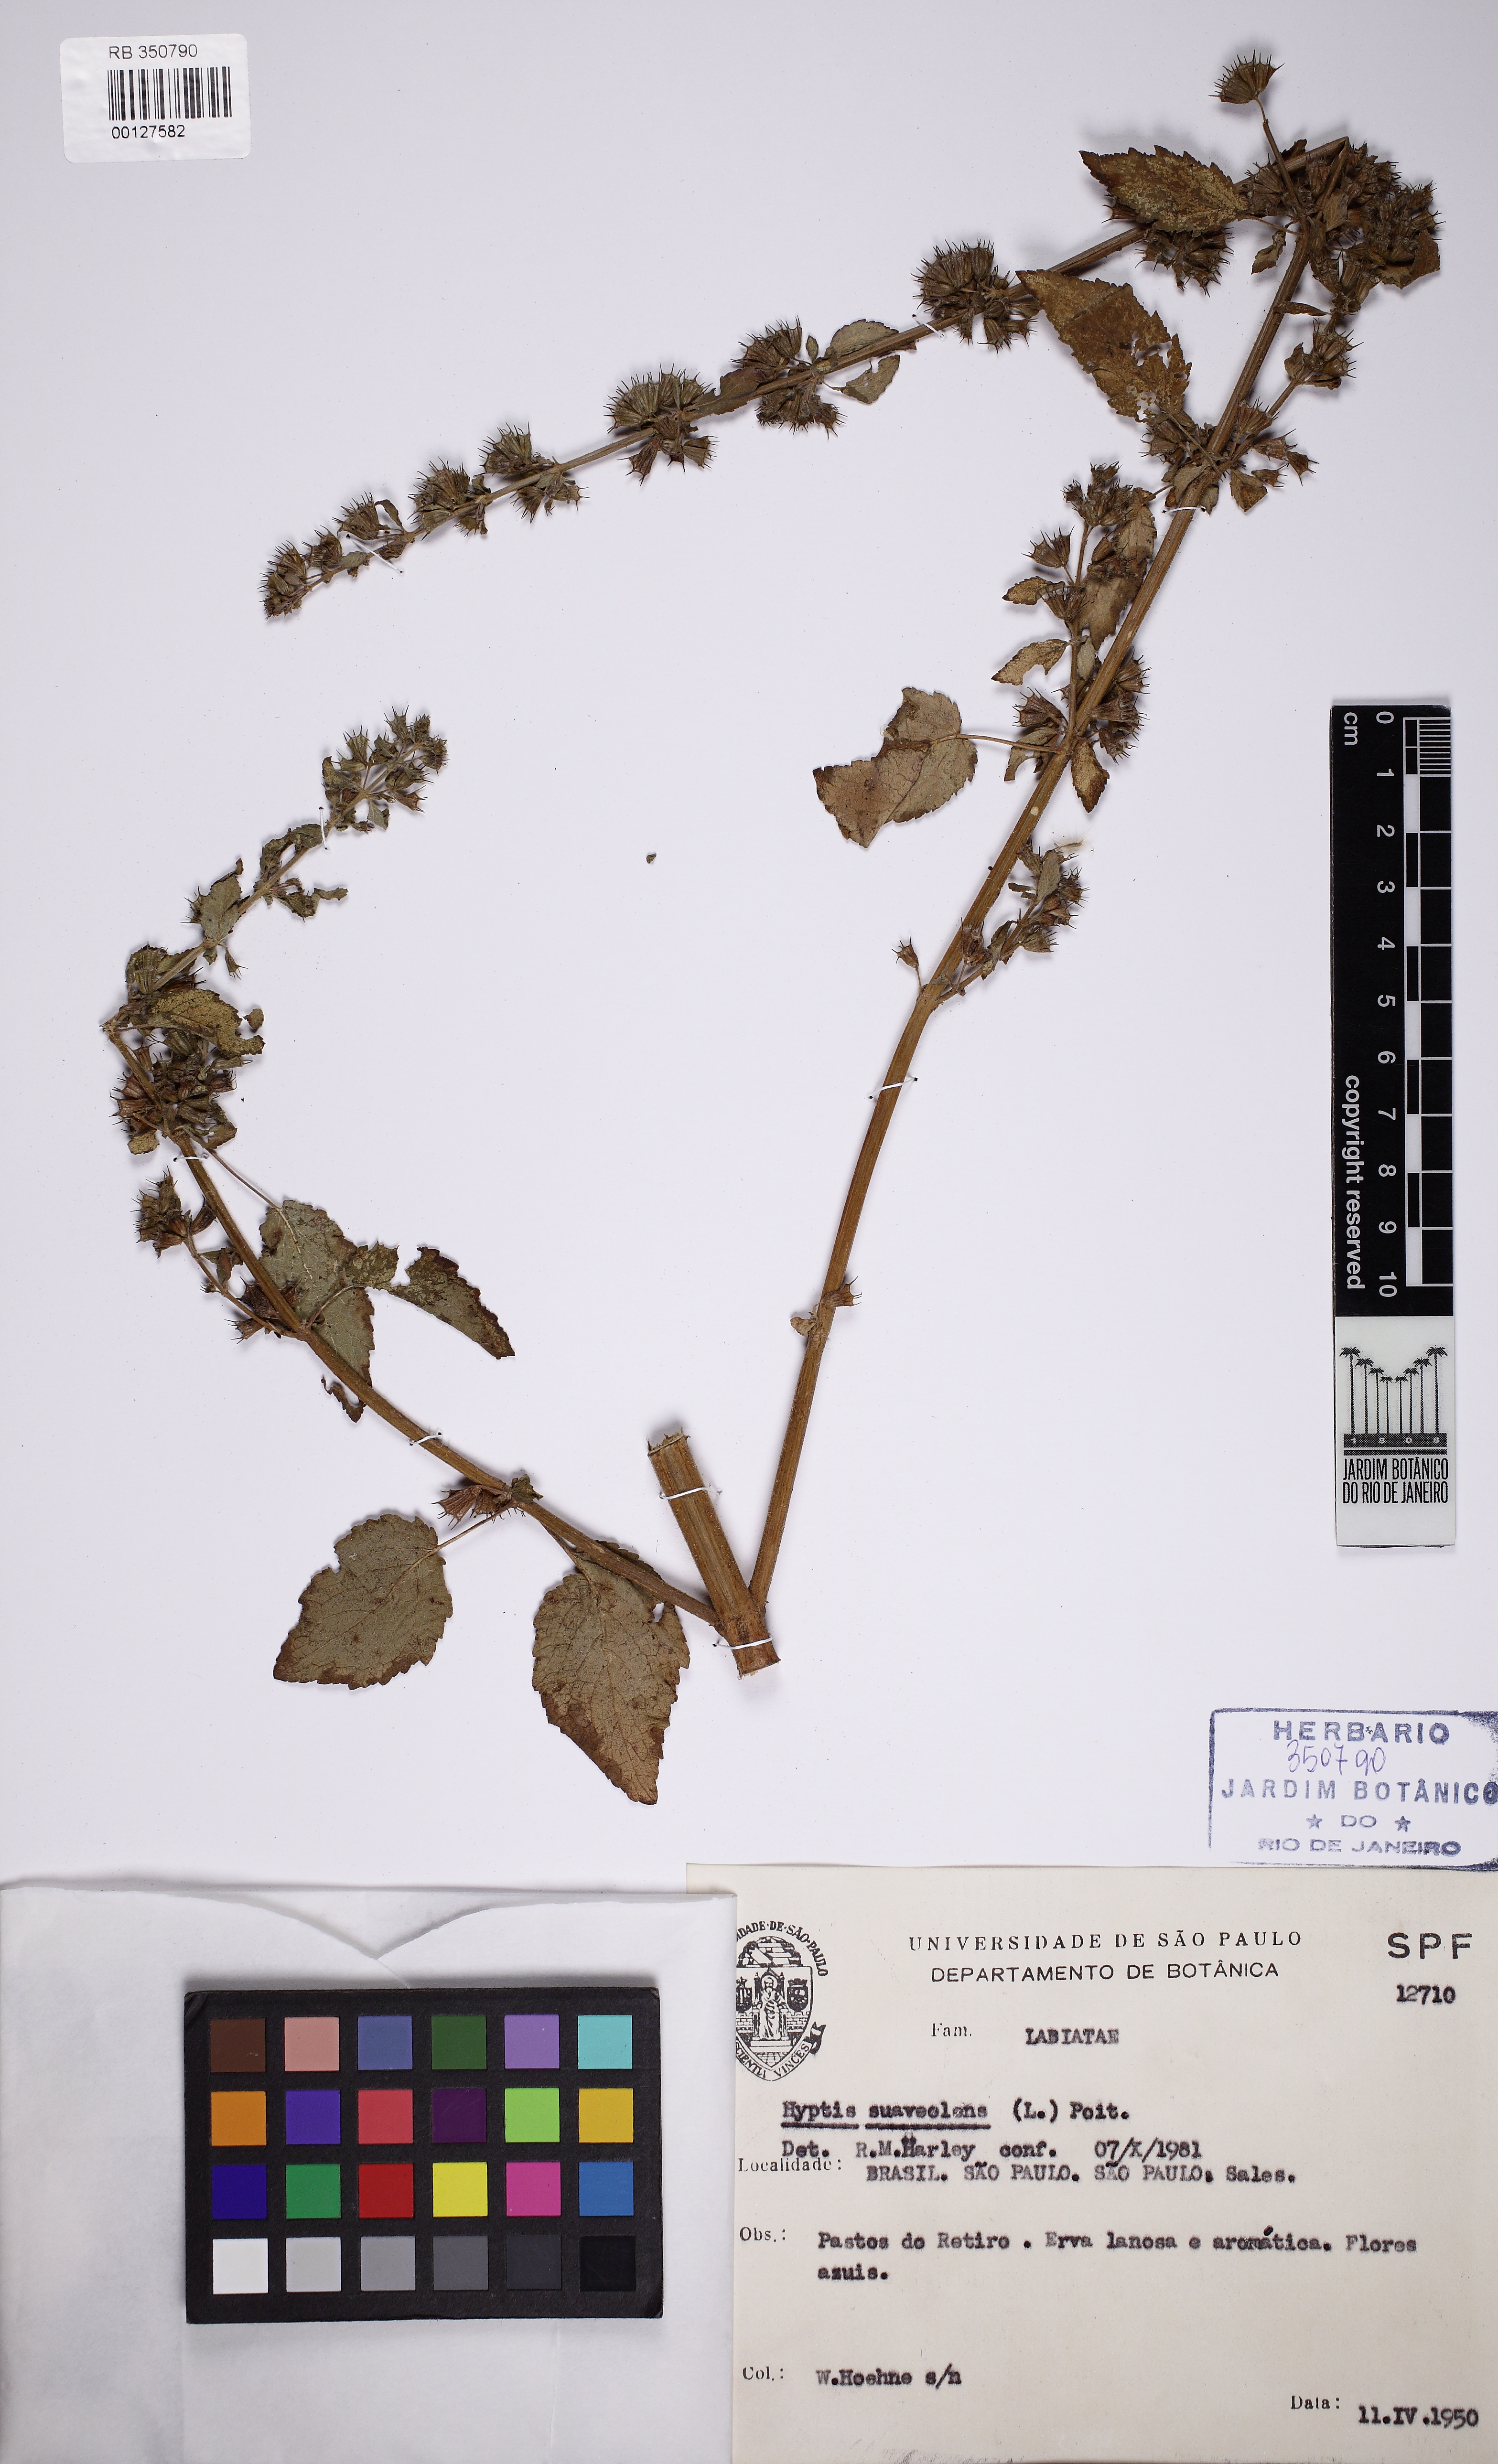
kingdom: Plantae
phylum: Tracheophyta
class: Magnoliopsida
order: Lamiales
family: Bignoniaceae
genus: Fridericia
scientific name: Fridericia triplinervia
